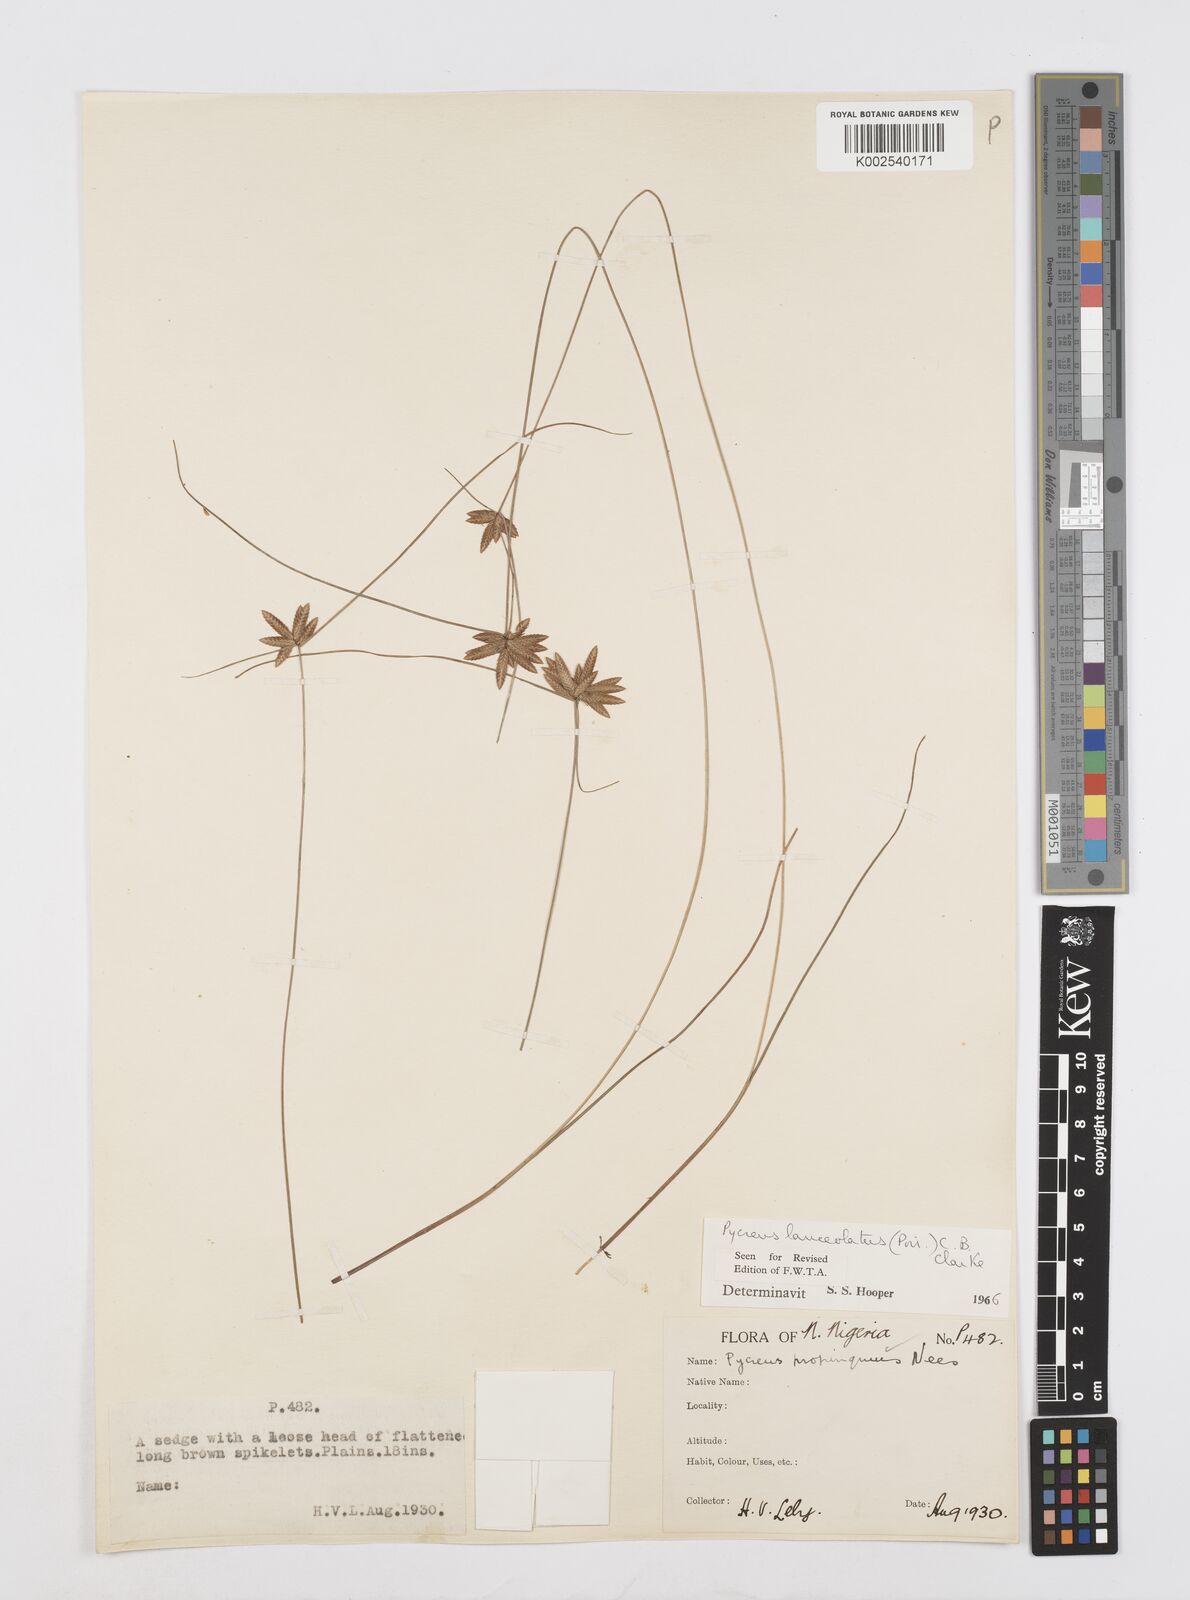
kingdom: Plantae
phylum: Tracheophyta
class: Liliopsida
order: Poales
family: Cyperaceae
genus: Cyperus
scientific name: Cyperus
